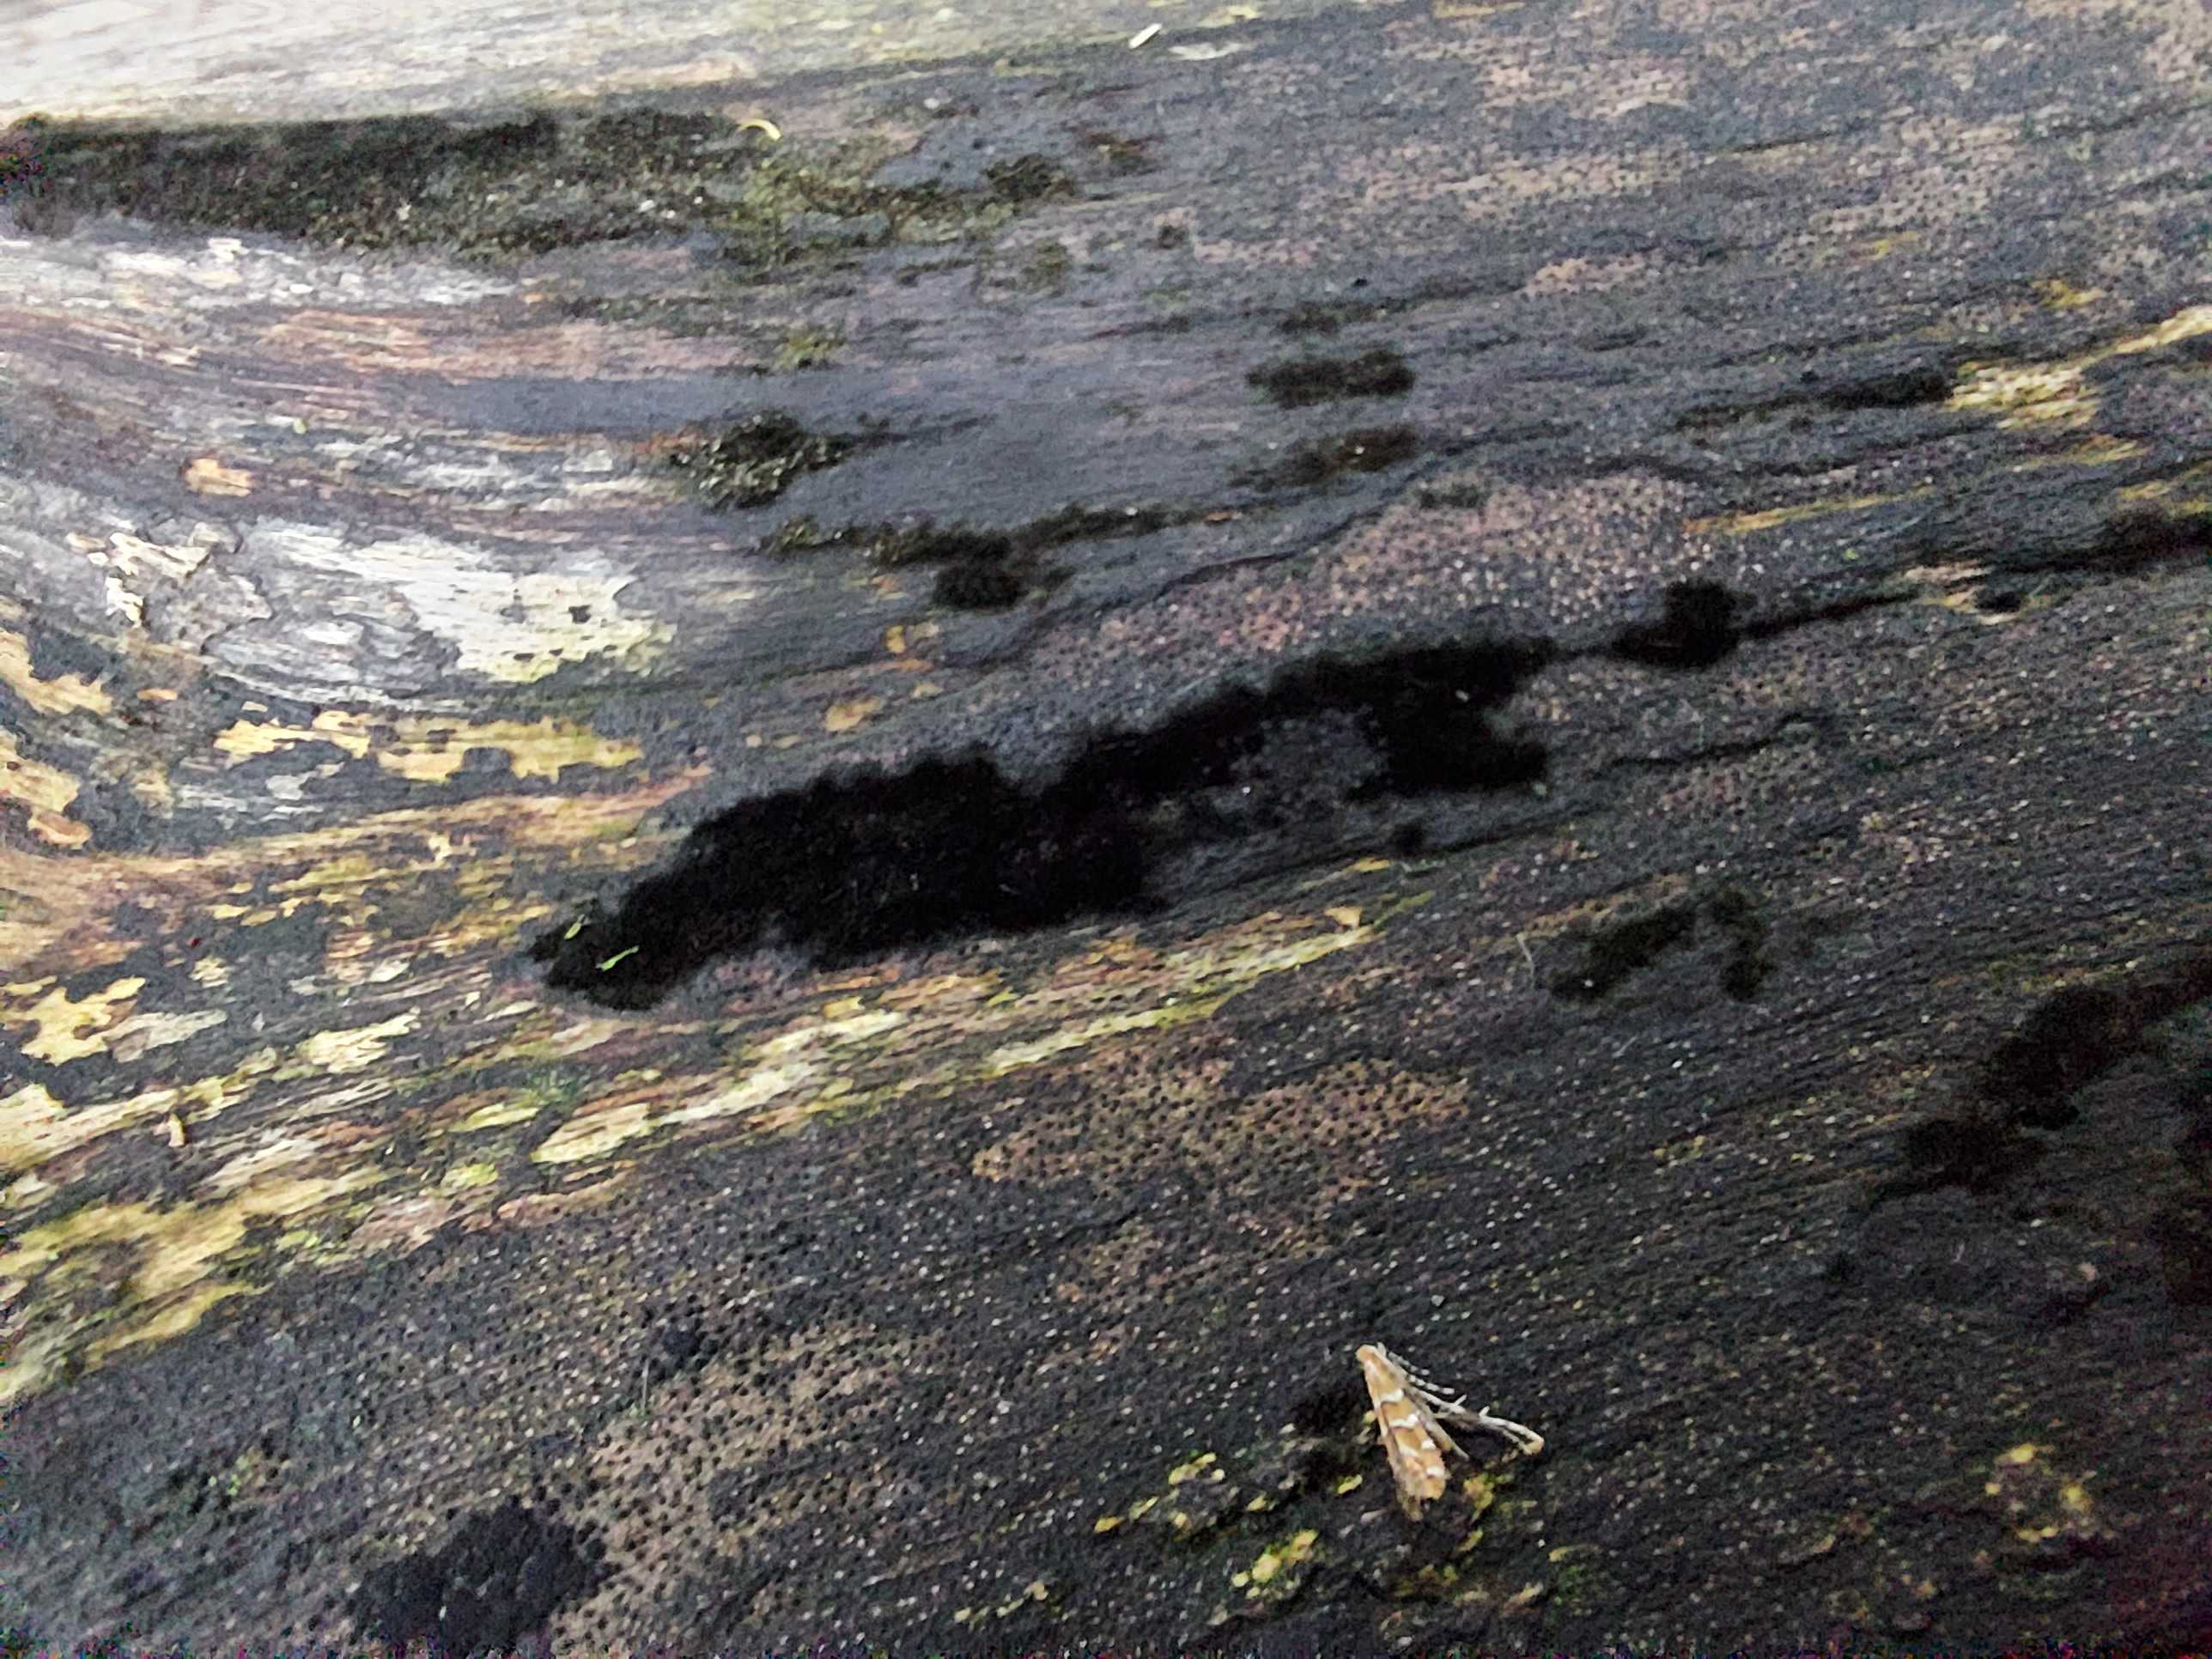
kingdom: Fungi
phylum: Ascomycota
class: Sordariomycetes
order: Coronophorales
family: Chaetosphaerellaceae
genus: Chaetosphaerella
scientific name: Chaetosphaerella phaeostroma
